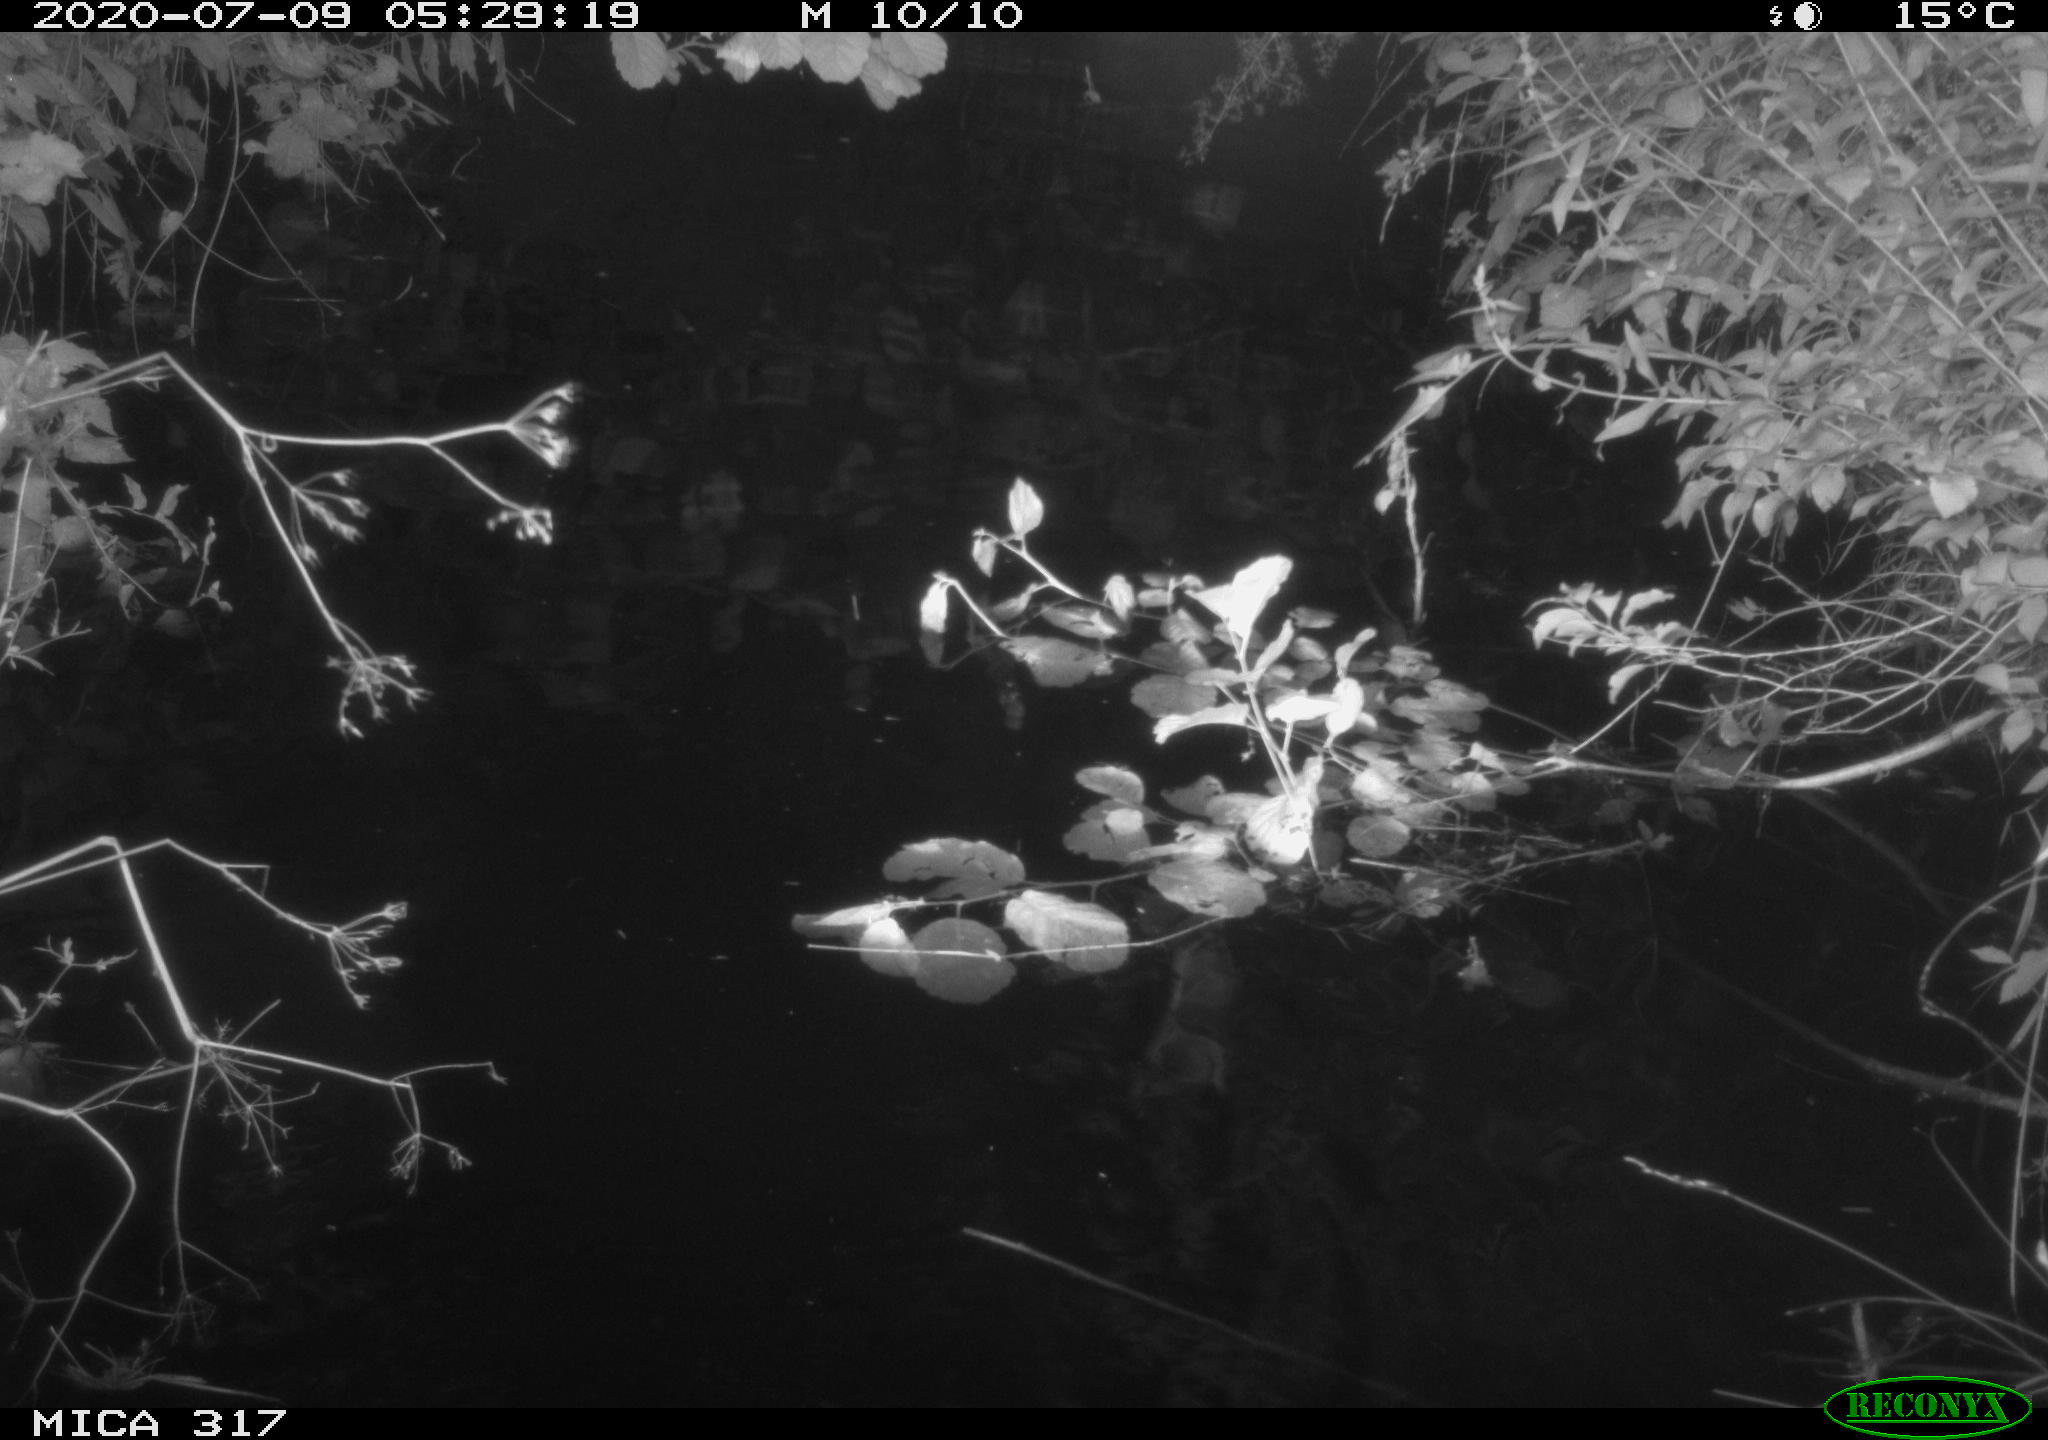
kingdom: Animalia
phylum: Chordata
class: Aves
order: Anseriformes
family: Anatidae
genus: Anas
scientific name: Anas platyrhynchos
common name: Mallard
